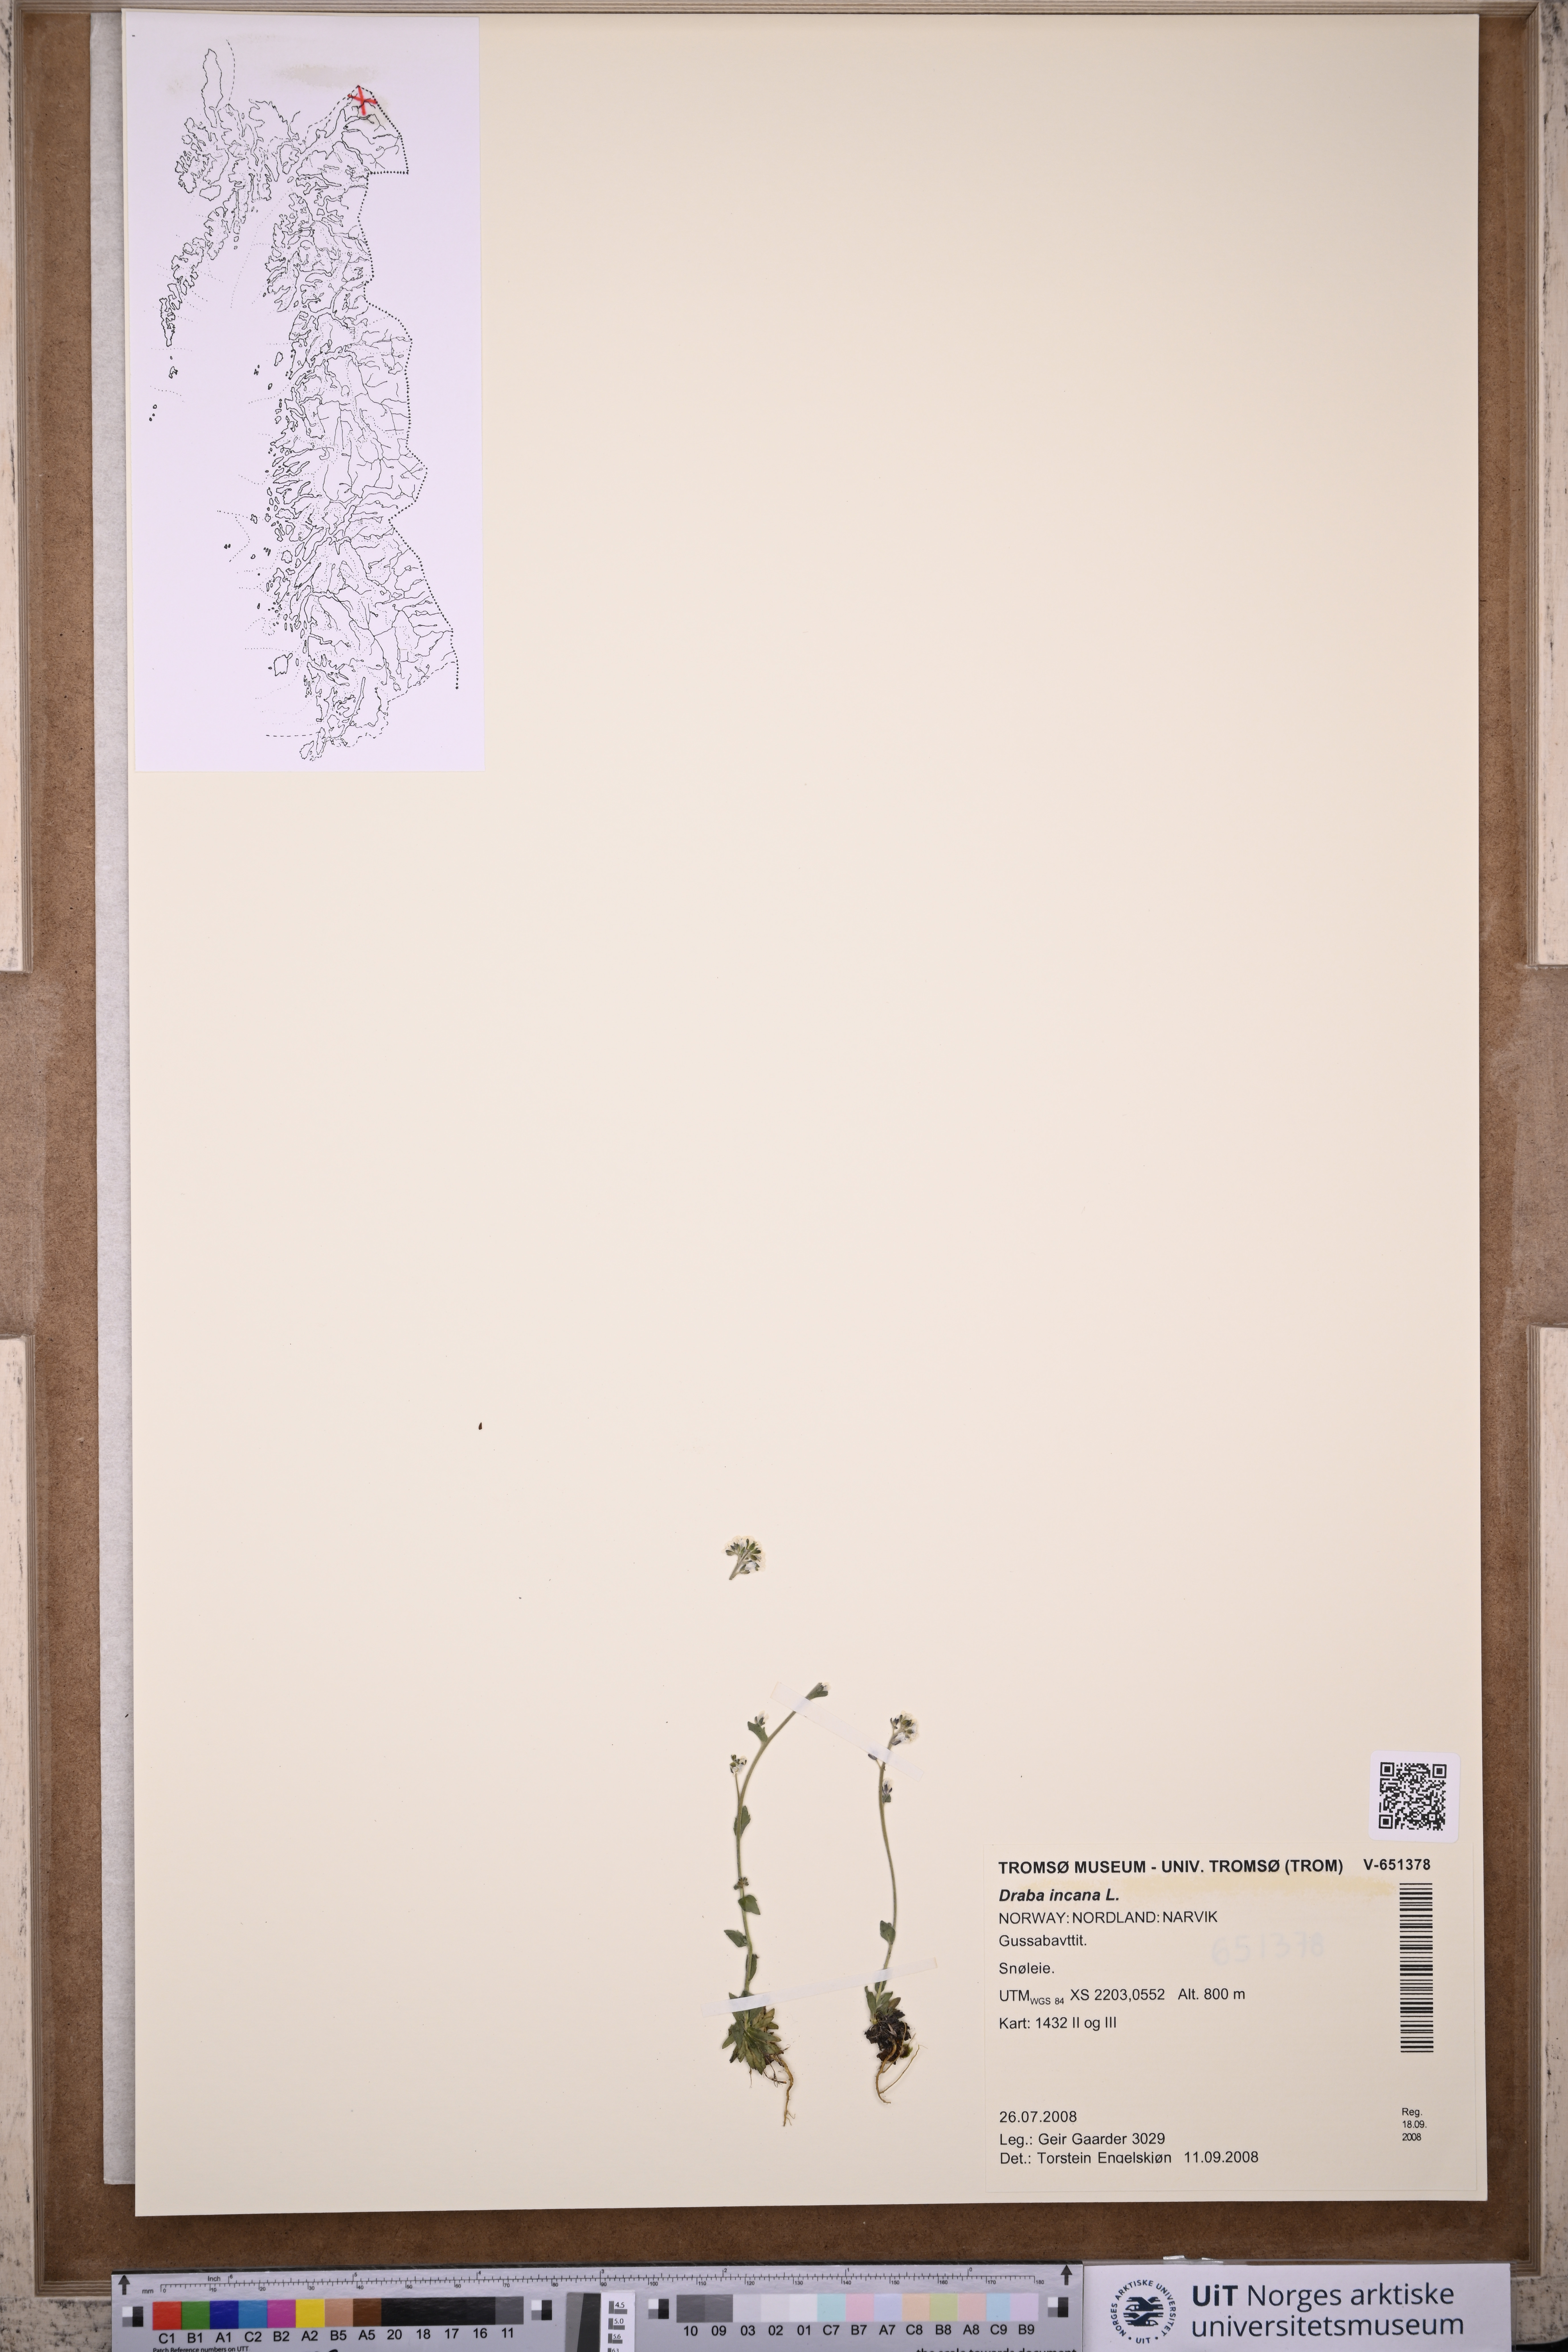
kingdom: Plantae
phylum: Tracheophyta
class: Magnoliopsida
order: Brassicales
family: Brassicaceae
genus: Draba
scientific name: Draba incana
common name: Hoary whitlow-grass
